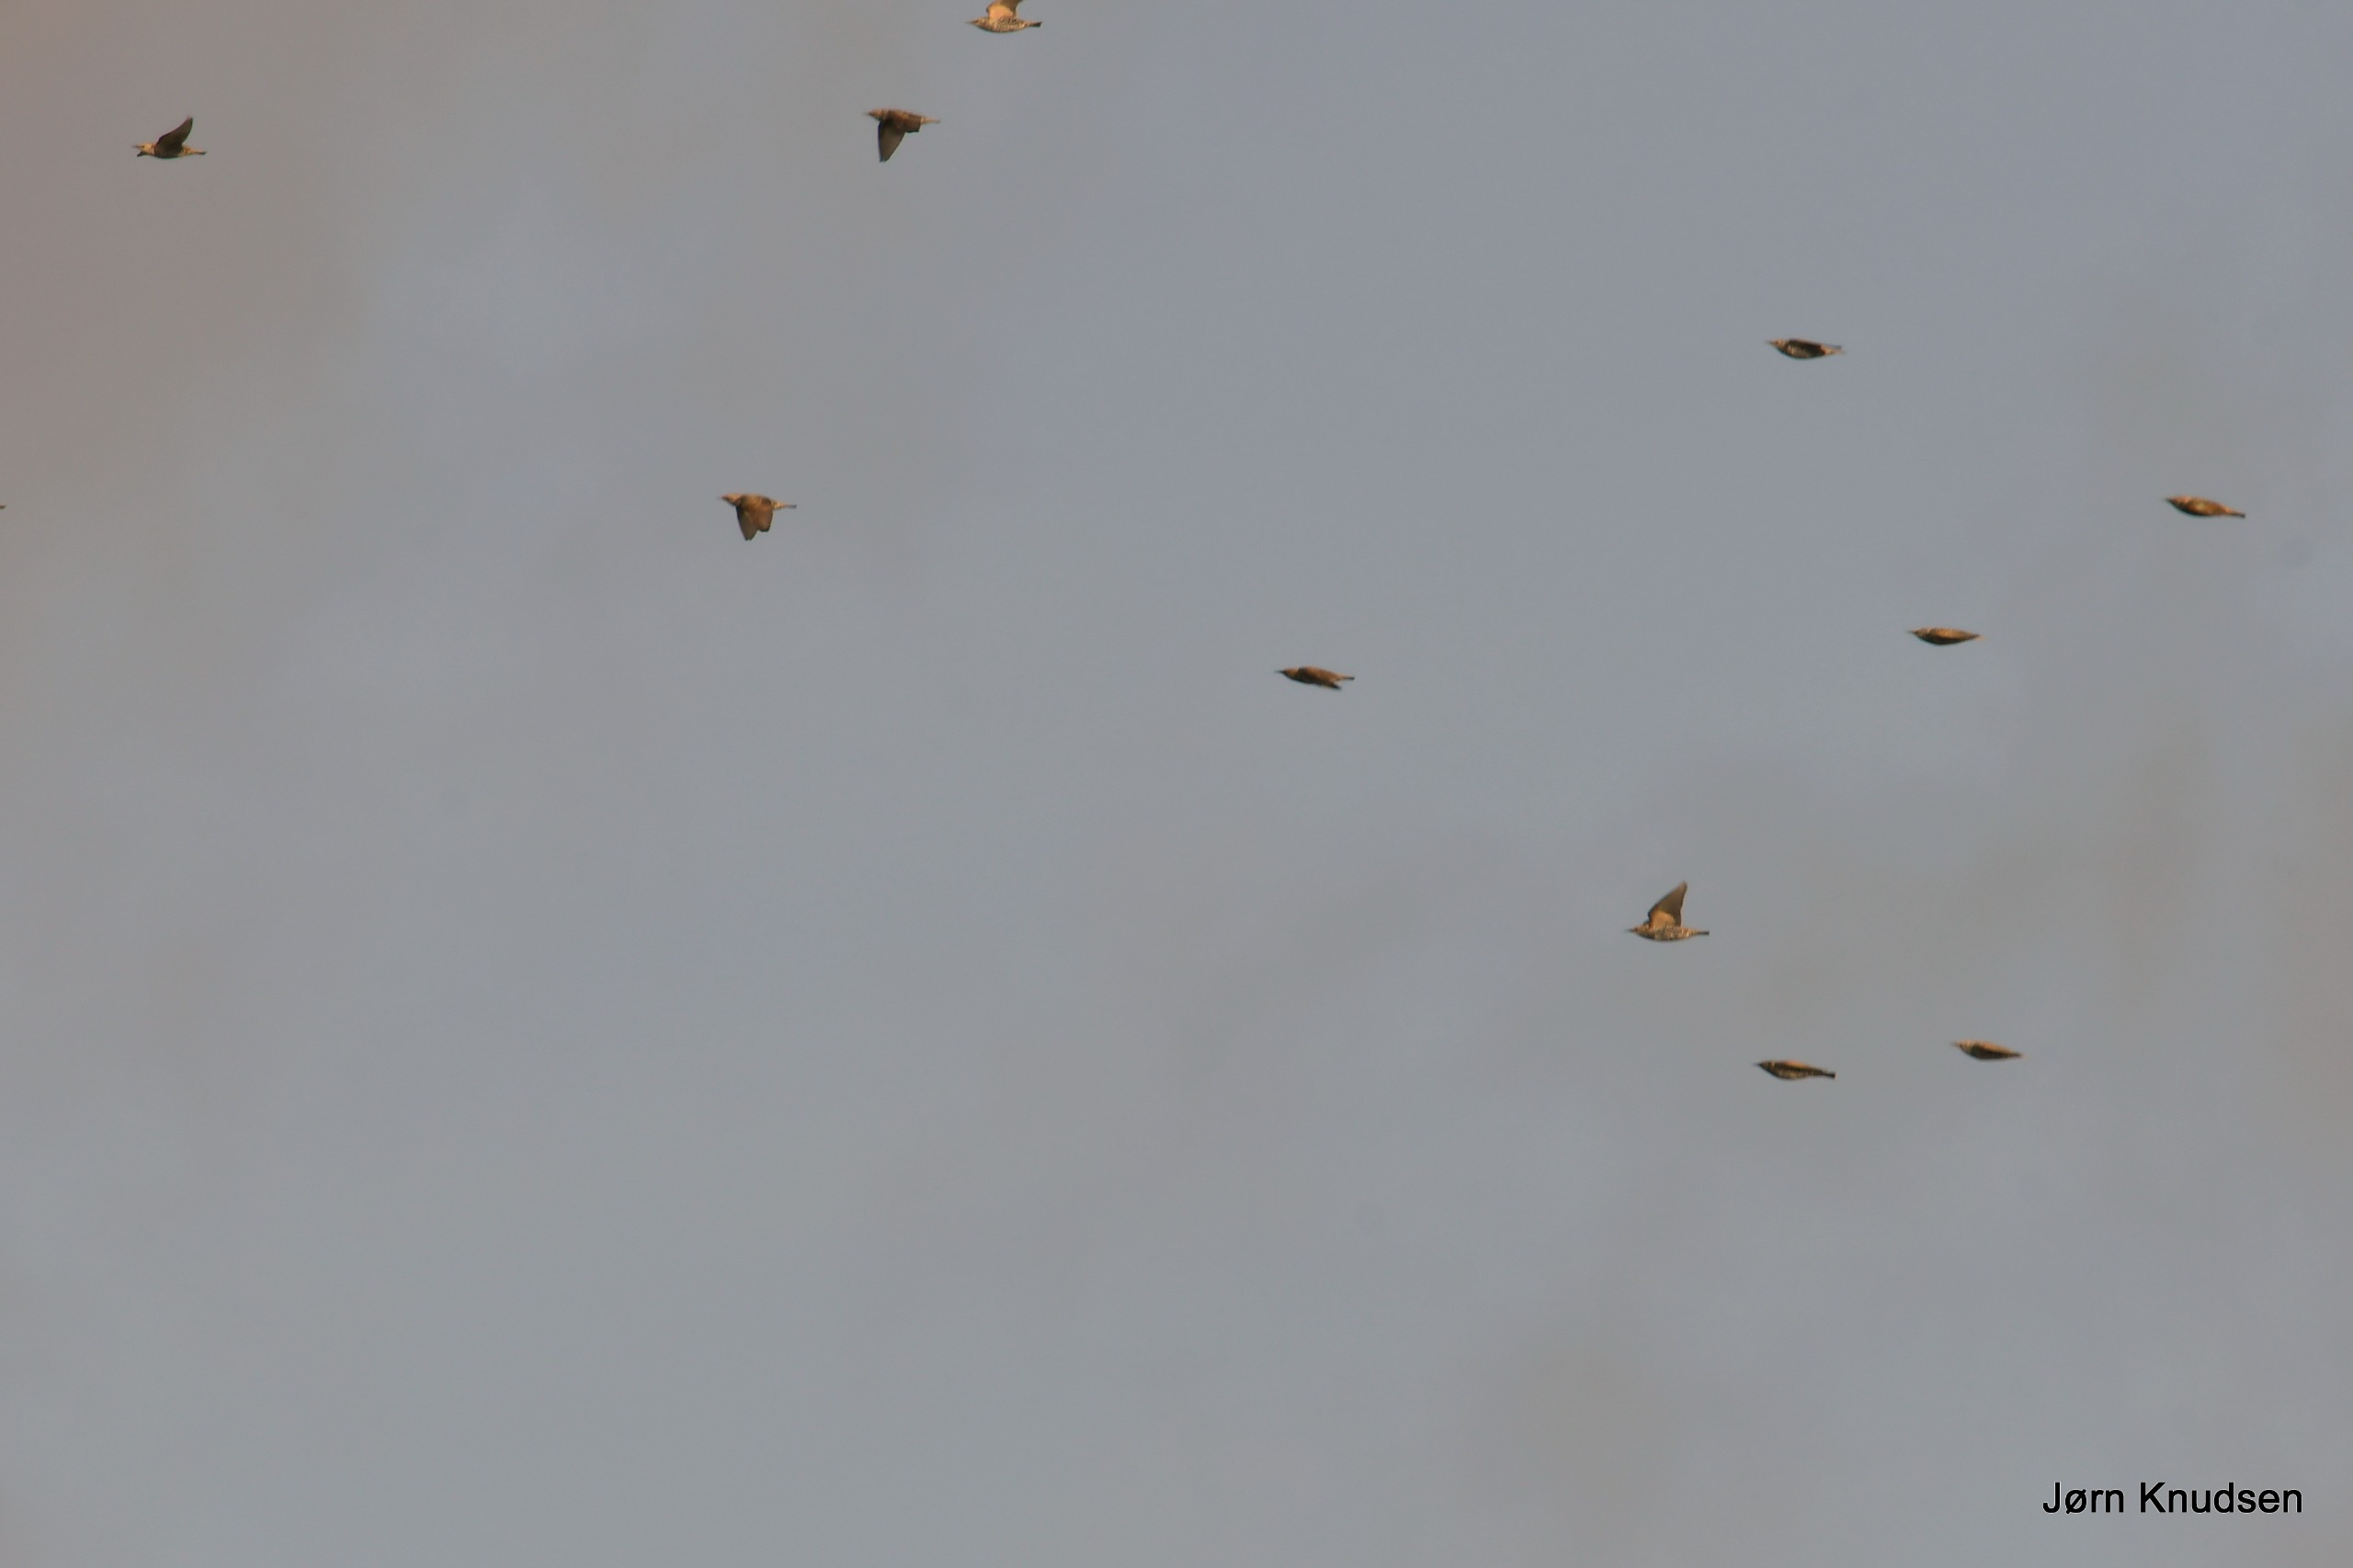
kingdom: Animalia
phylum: Chordata
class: Aves
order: Passeriformes
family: Sturnidae
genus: Sturnus
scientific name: Sturnus vulgaris
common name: Stær
